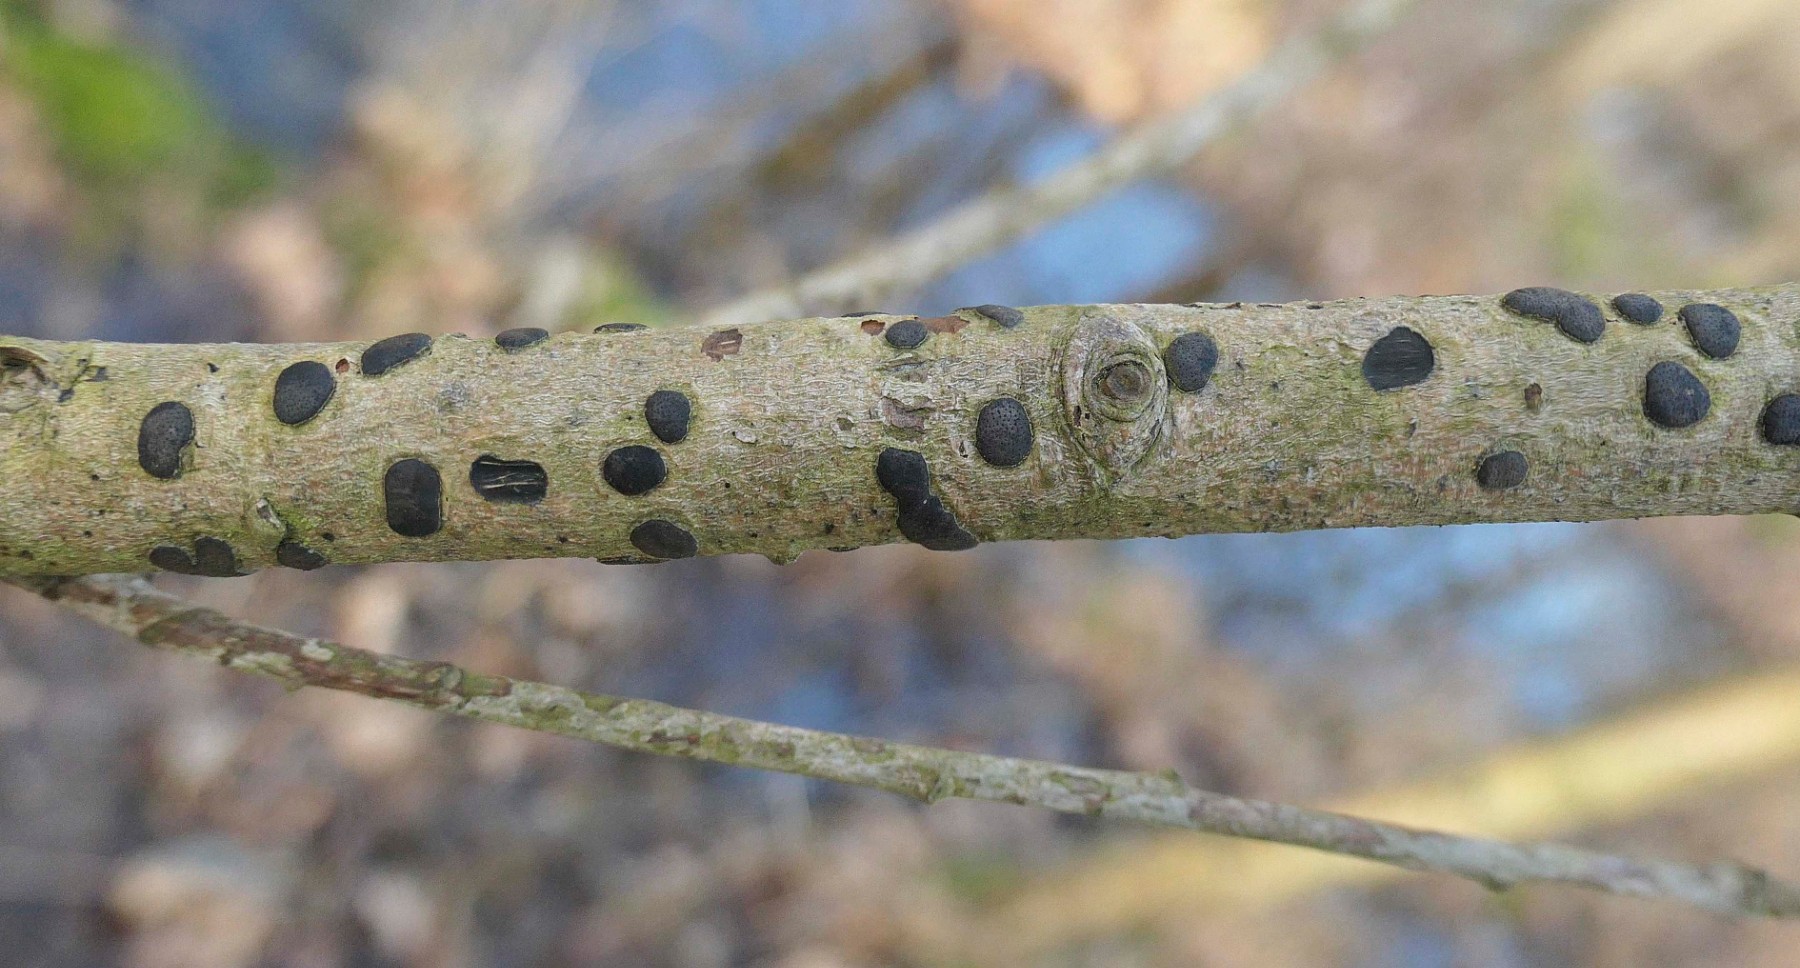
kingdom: Fungi
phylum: Ascomycota
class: Sordariomycetes
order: Xylariales
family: Diatrypaceae
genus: Diatrype
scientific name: Diatrype bullata
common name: pile-kulskorpe
